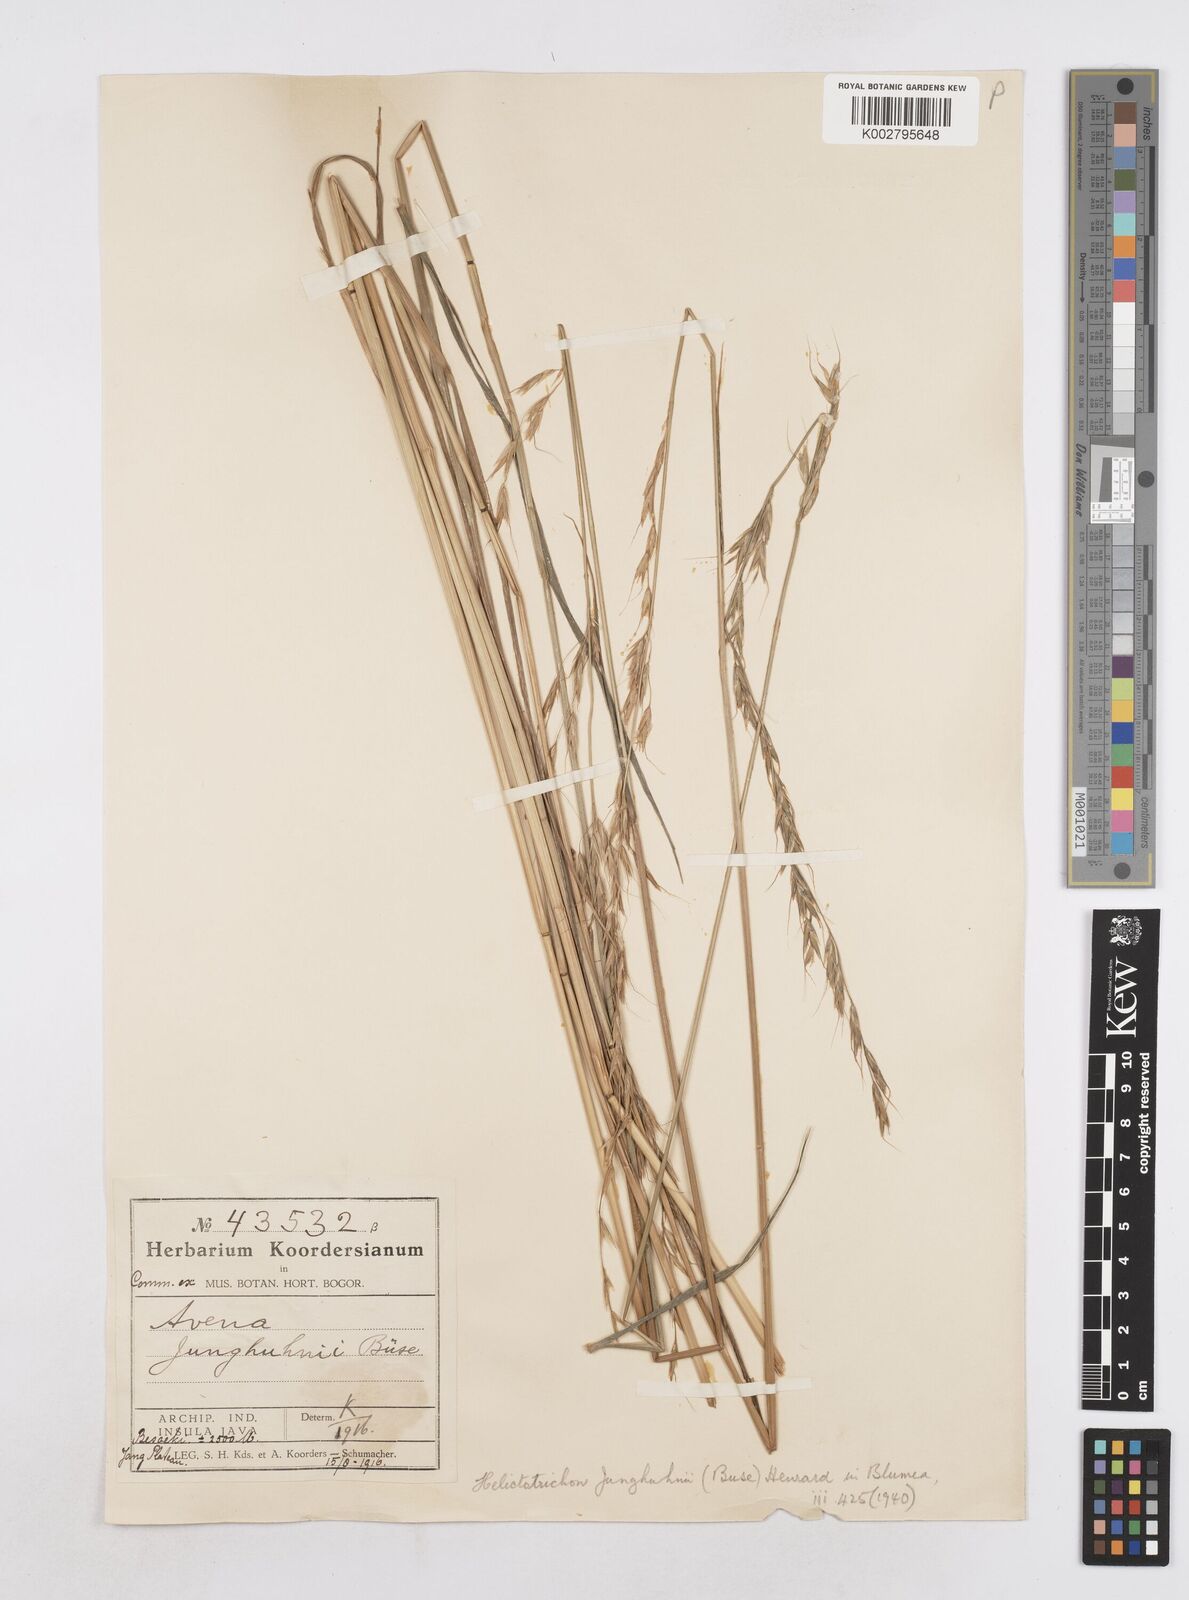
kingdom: Plantae
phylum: Tracheophyta
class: Liliopsida
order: Poales
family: Poaceae
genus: Trisetopsis
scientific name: Trisetopsis junghuhnii
